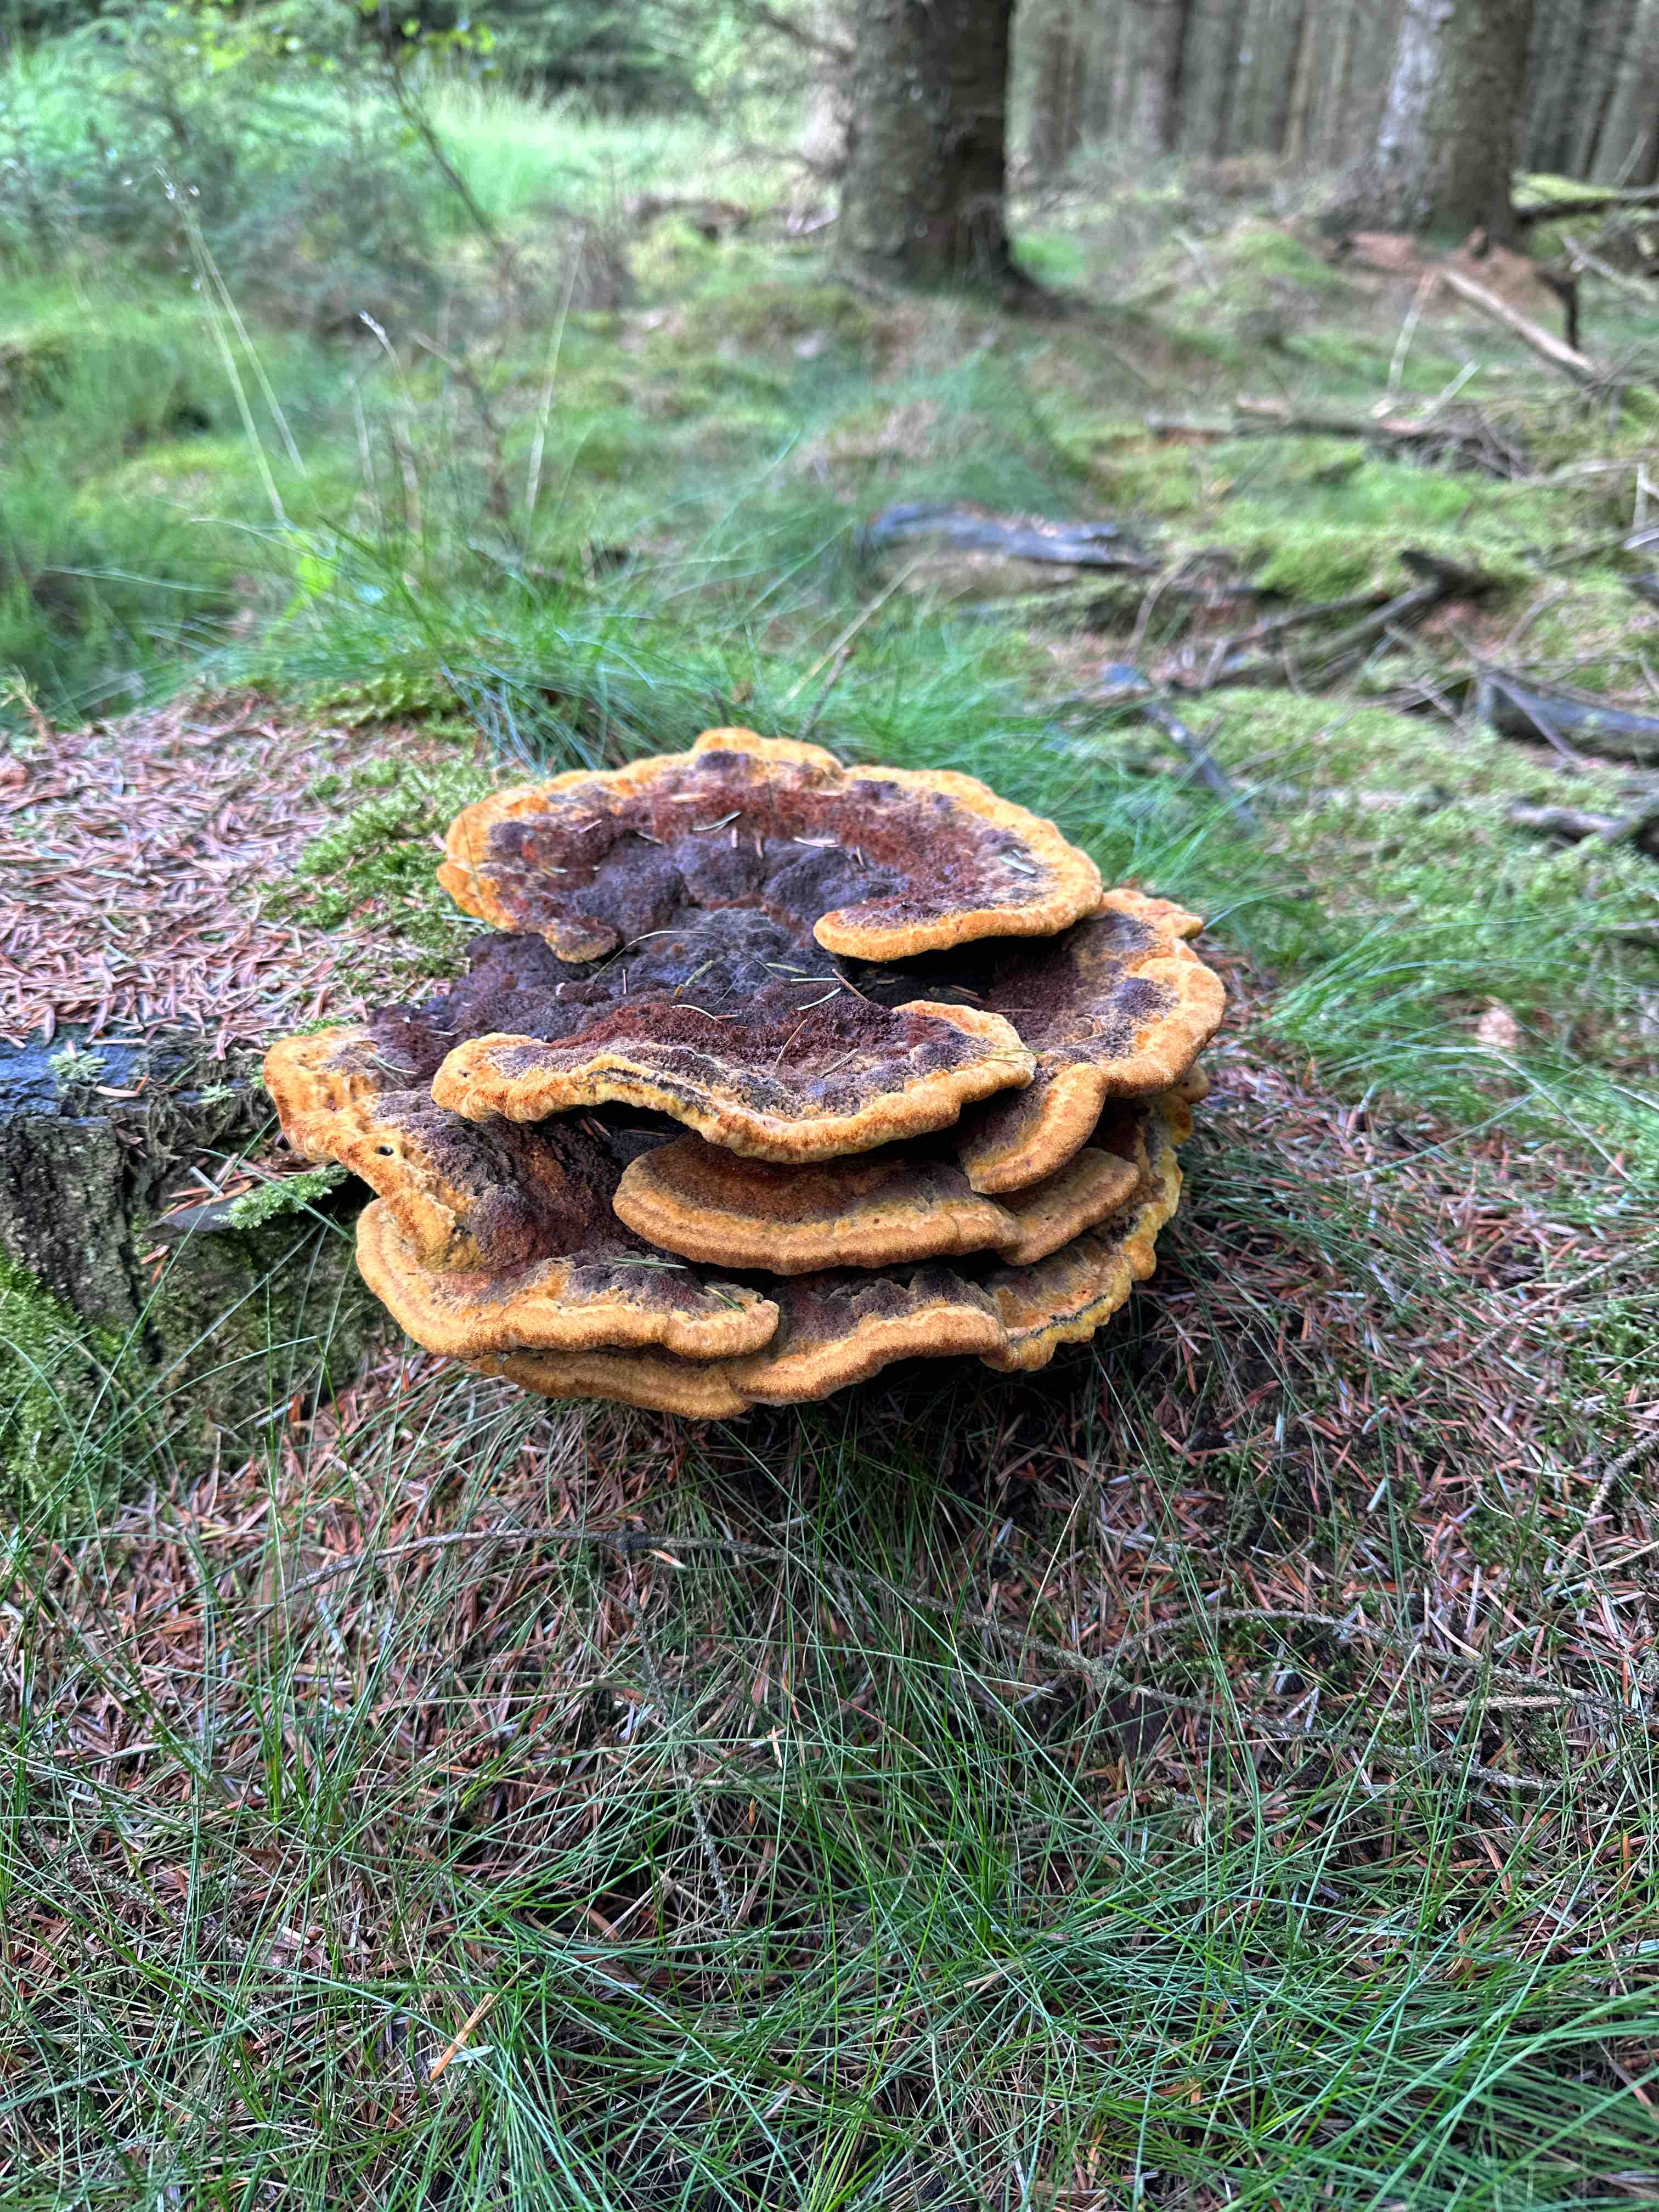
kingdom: Fungi
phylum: Basidiomycota
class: Agaricomycetes
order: Polyporales
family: Laetiporaceae
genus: Phaeolus
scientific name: Phaeolus schweinitzii
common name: brunporesvamp
